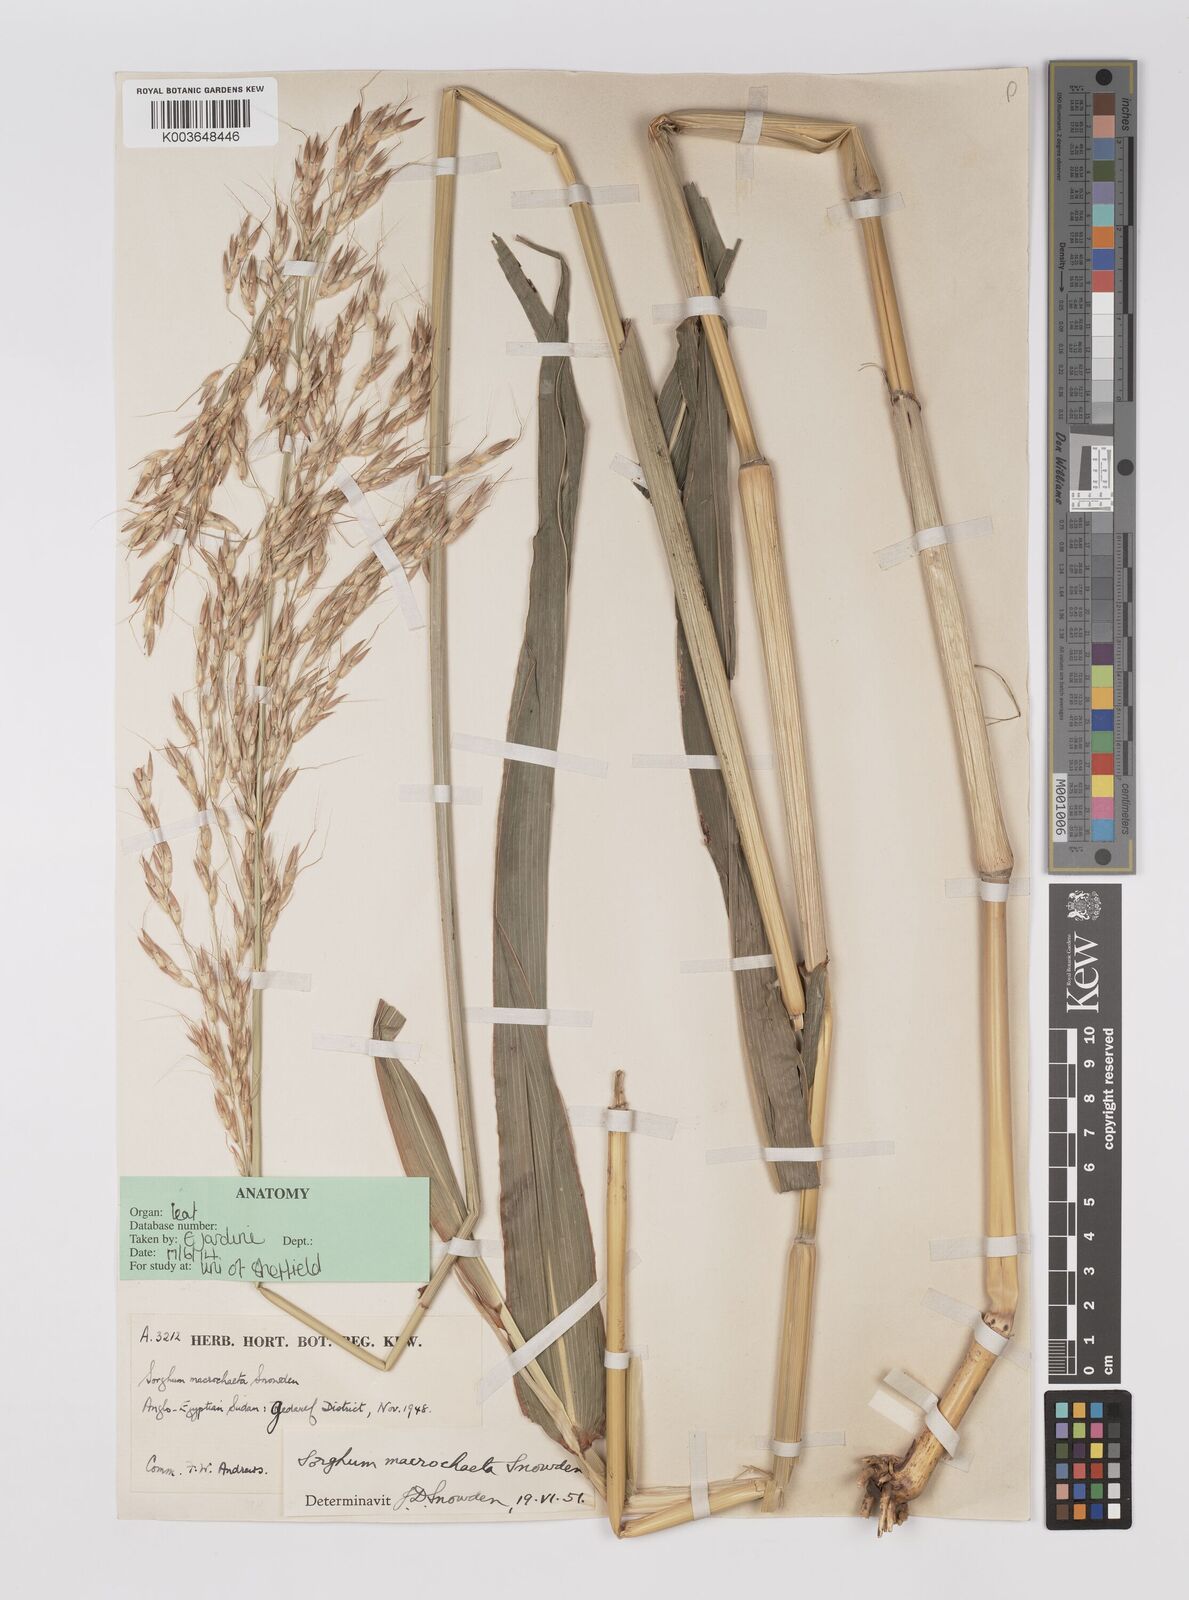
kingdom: Plantae
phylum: Tracheophyta
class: Liliopsida
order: Poales
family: Poaceae
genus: Sorghum
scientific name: Sorghum arundinaceum
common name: Sorghum
